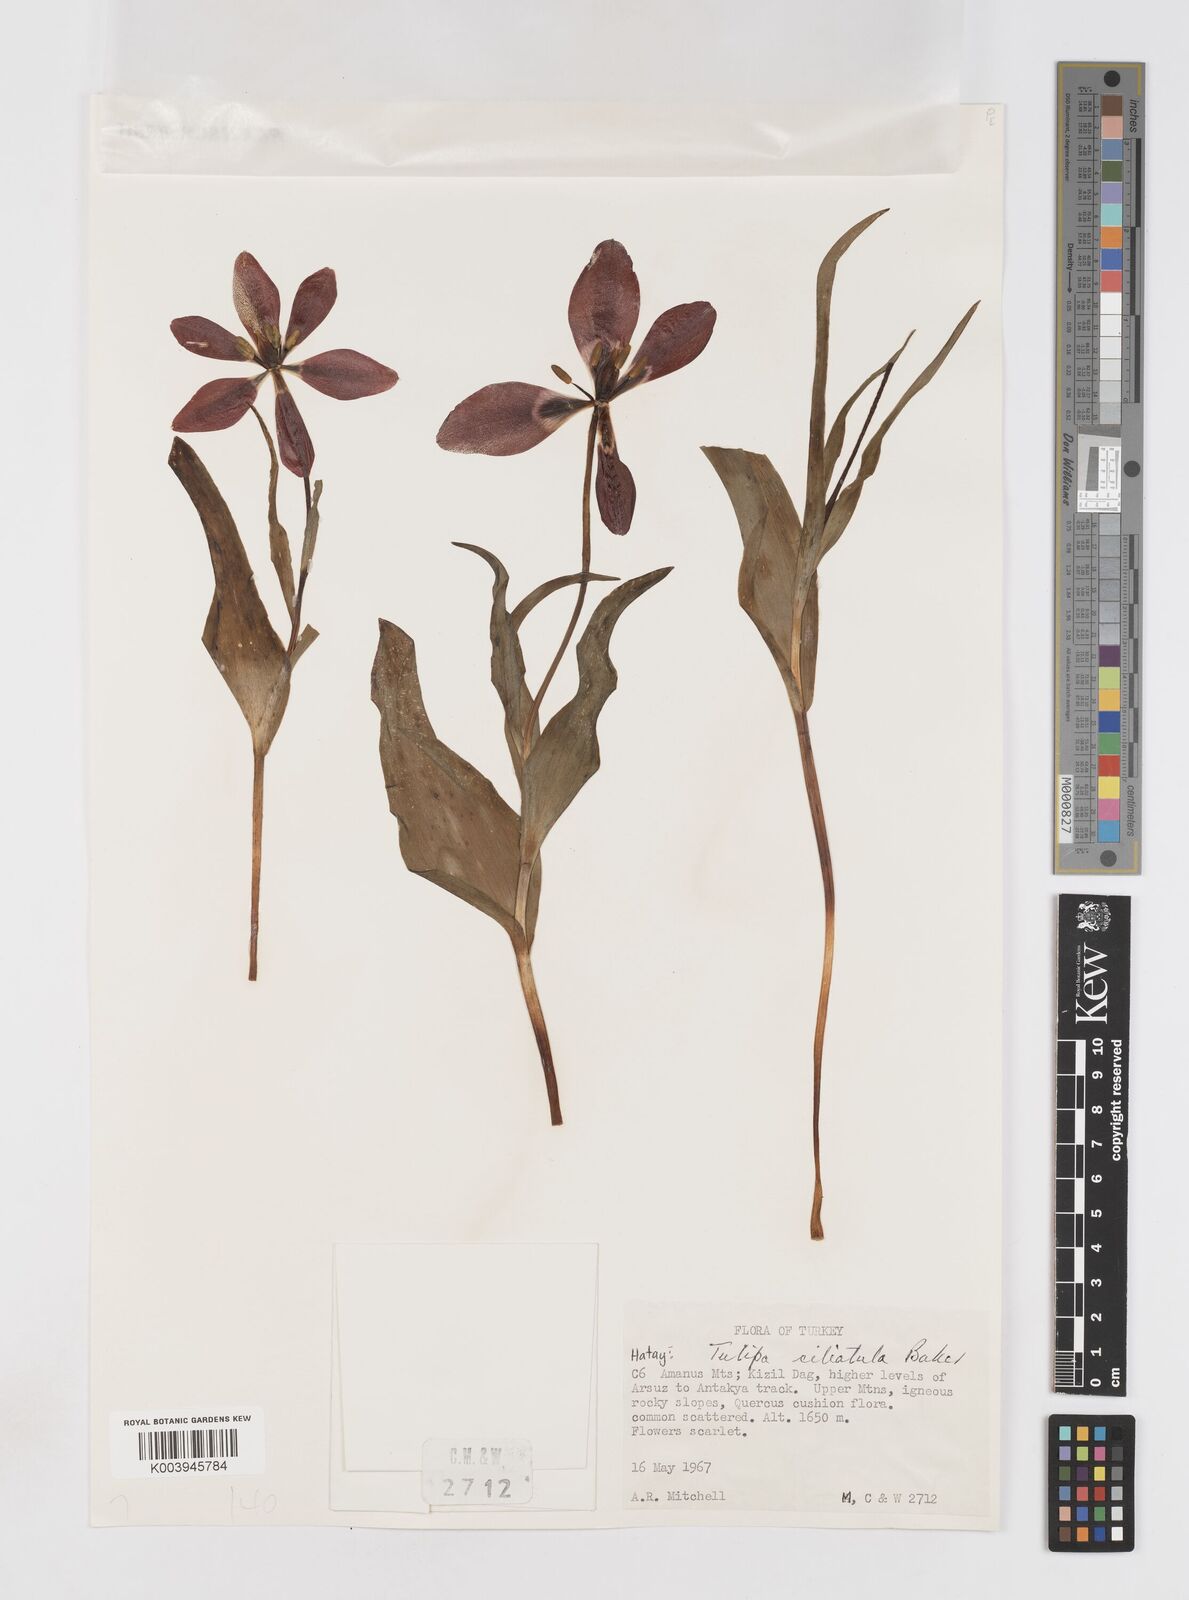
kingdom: Plantae
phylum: Tracheophyta
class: Liliopsida
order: Liliales
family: Liliaceae
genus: Tulipa
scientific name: Tulipa foliosa
